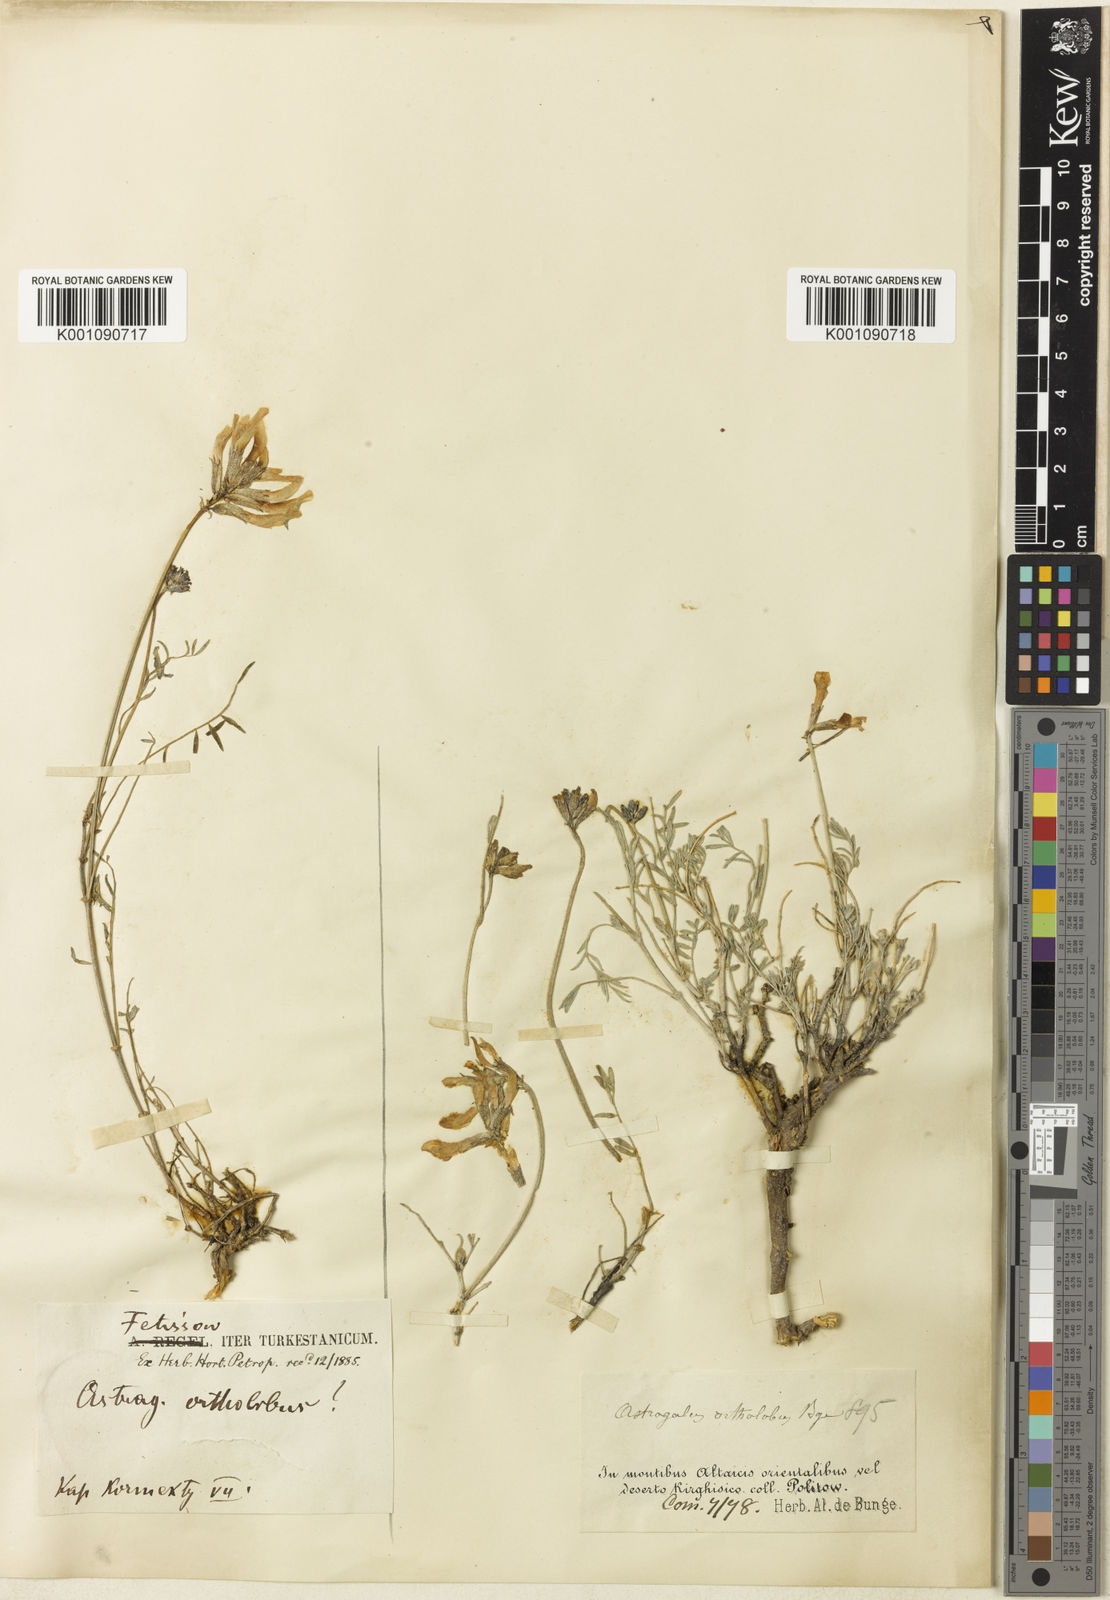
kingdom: Plantae
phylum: Tracheophyta
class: Magnoliopsida
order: Fabales
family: Fabaceae
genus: Astragalus
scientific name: Astragalus
